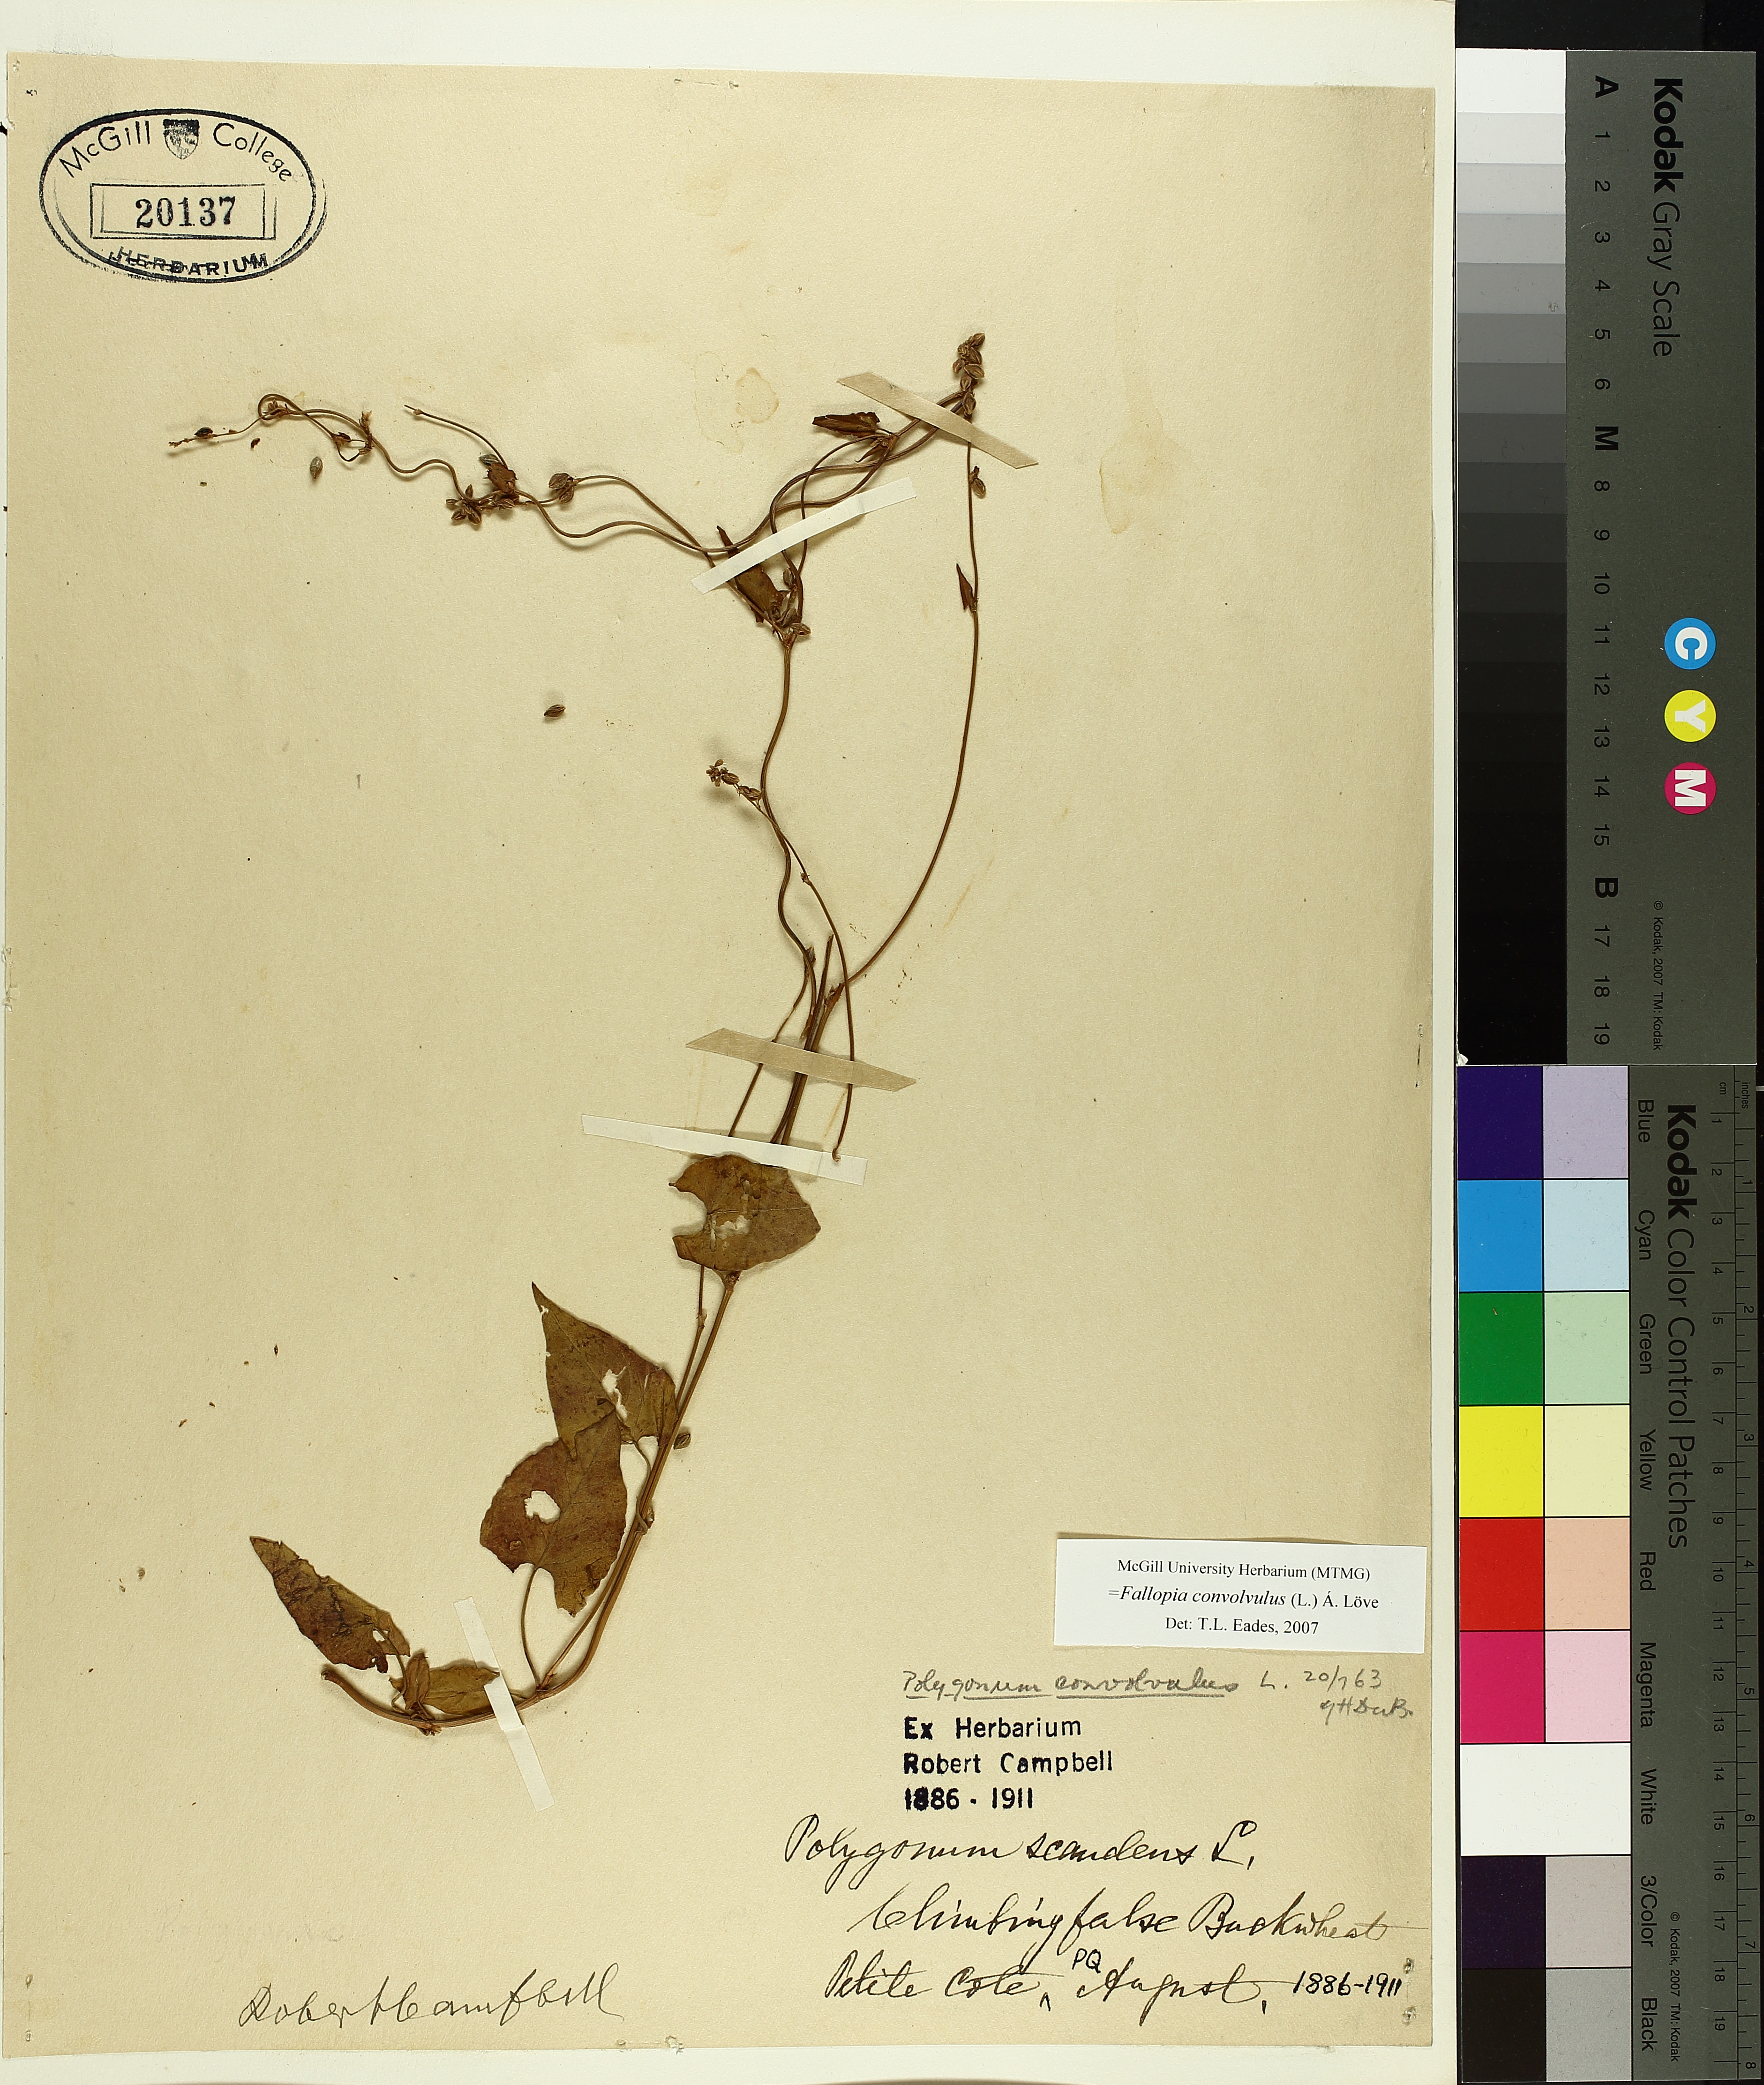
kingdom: Plantae
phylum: Tracheophyta
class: Magnoliopsida
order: Caryophyllales
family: Polygonaceae
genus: Fallopia
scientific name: Fallopia convolvulus
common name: Black bindweed
